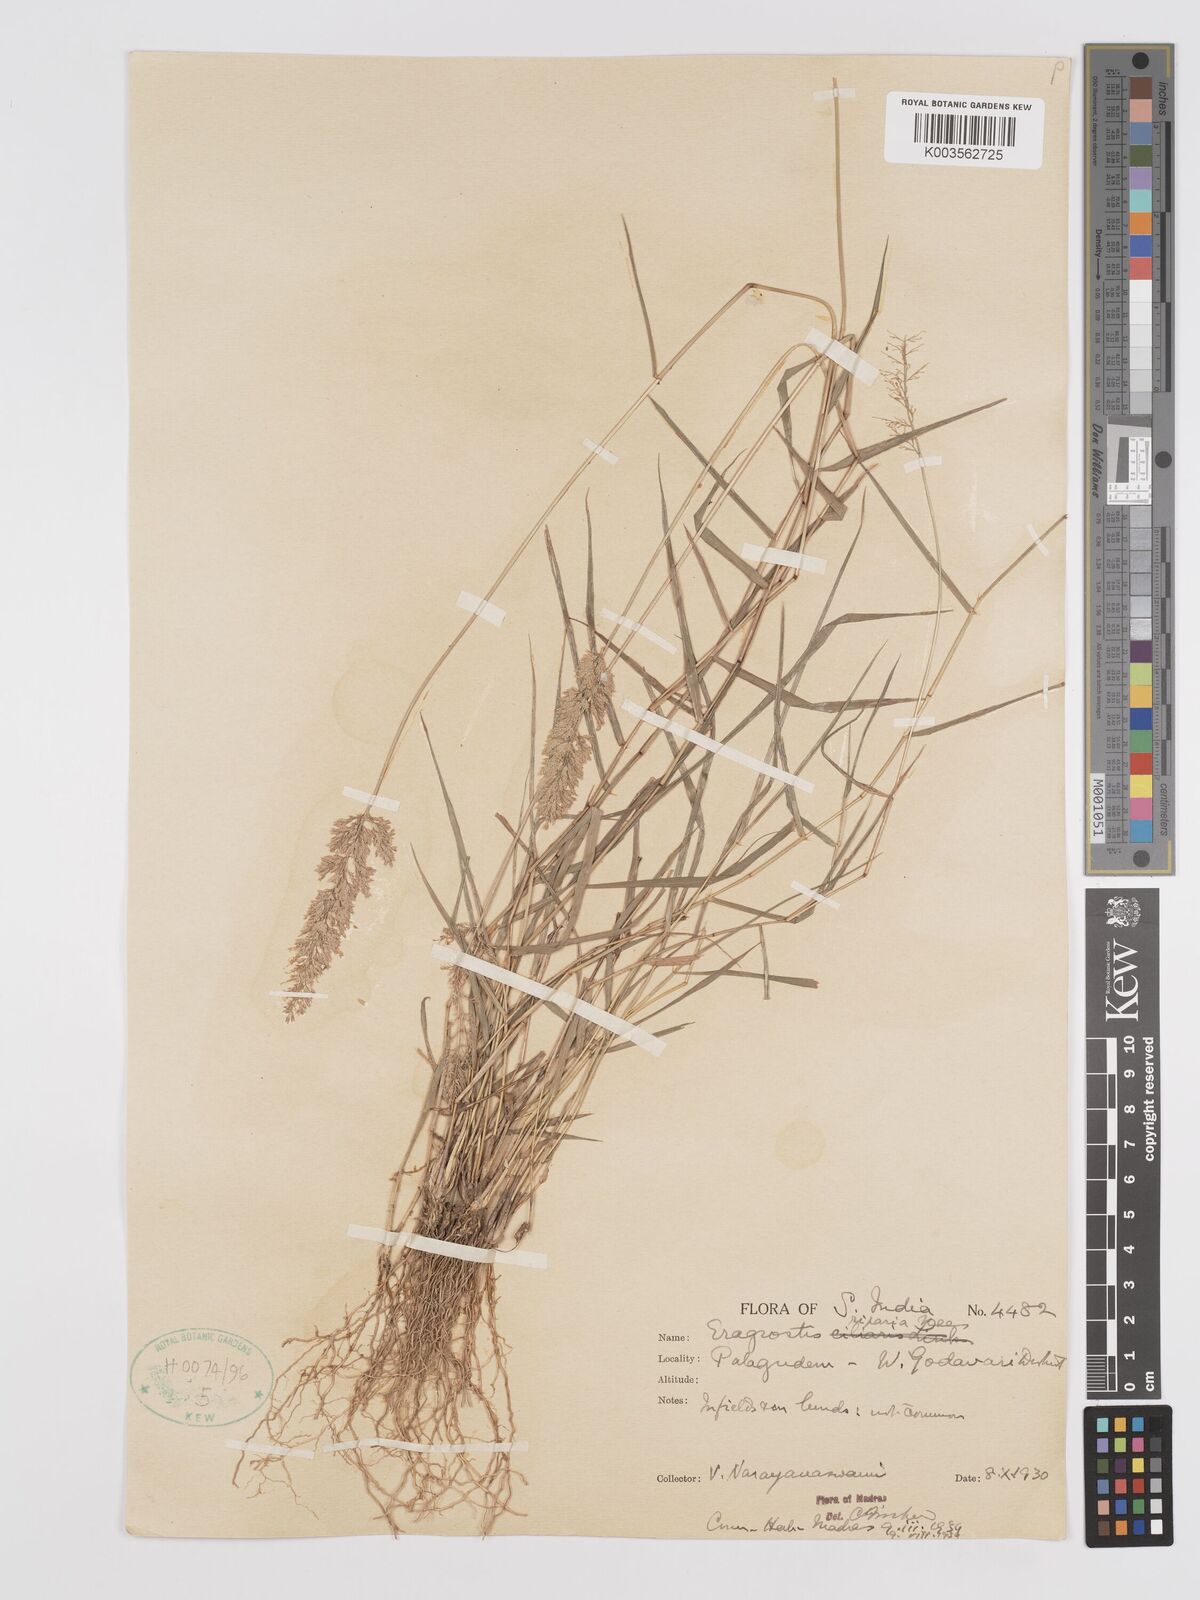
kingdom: Plantae
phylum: Tracheophyta
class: Liliopsida
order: Poales
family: Poaceae
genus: Eragrostis
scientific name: Eragrostis riparia
